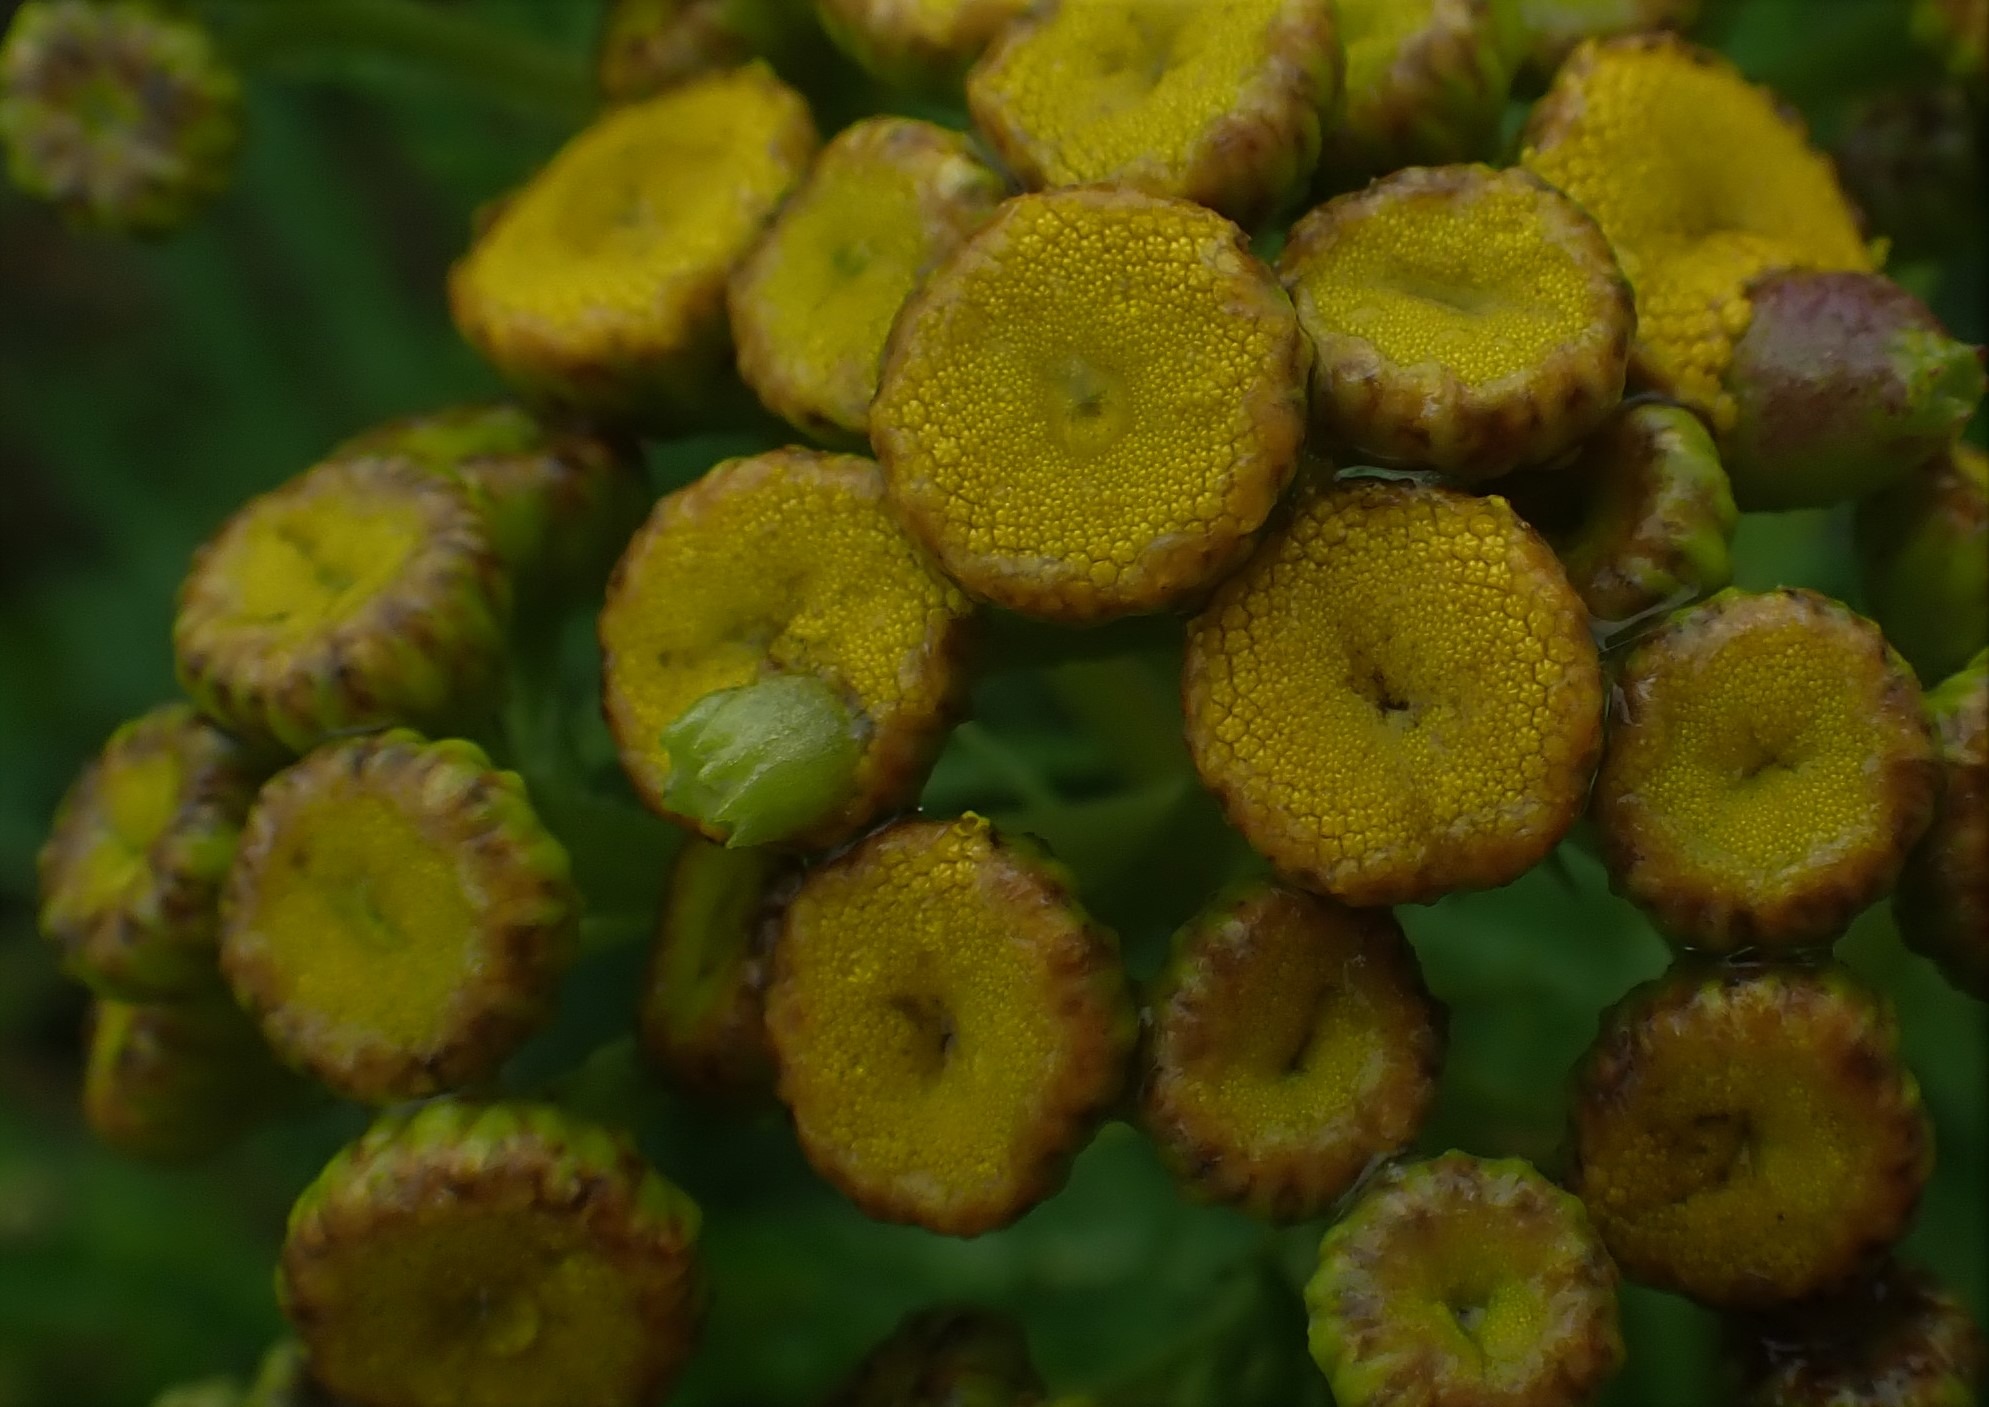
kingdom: Animalia
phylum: Arthropoda
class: Insecta
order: Diptera
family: Cecidomyiidae
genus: Rhopalomyia
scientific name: Rhopalomyia tanaceticolus
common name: Rejnfangalmyg
